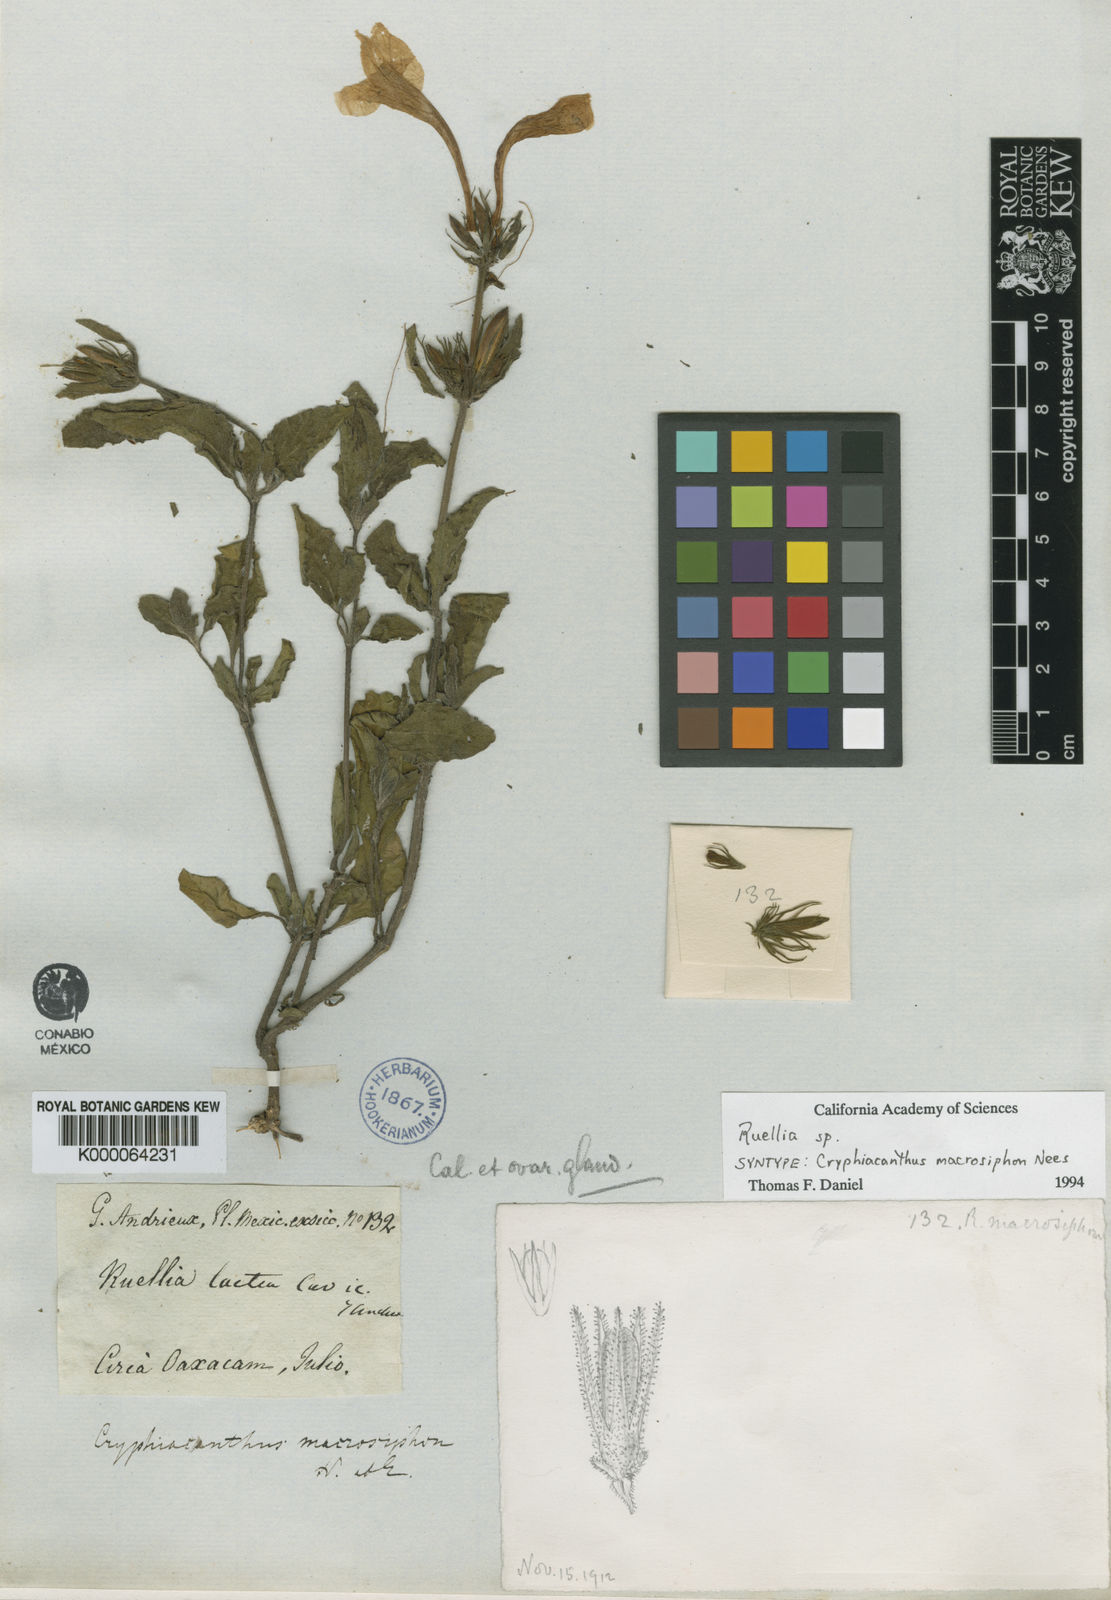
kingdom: Plantae
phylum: Tracheophyta
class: Magnoliopsida
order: Lamiales
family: Acanthaceae
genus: Ruellia
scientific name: Ruellia lactea
